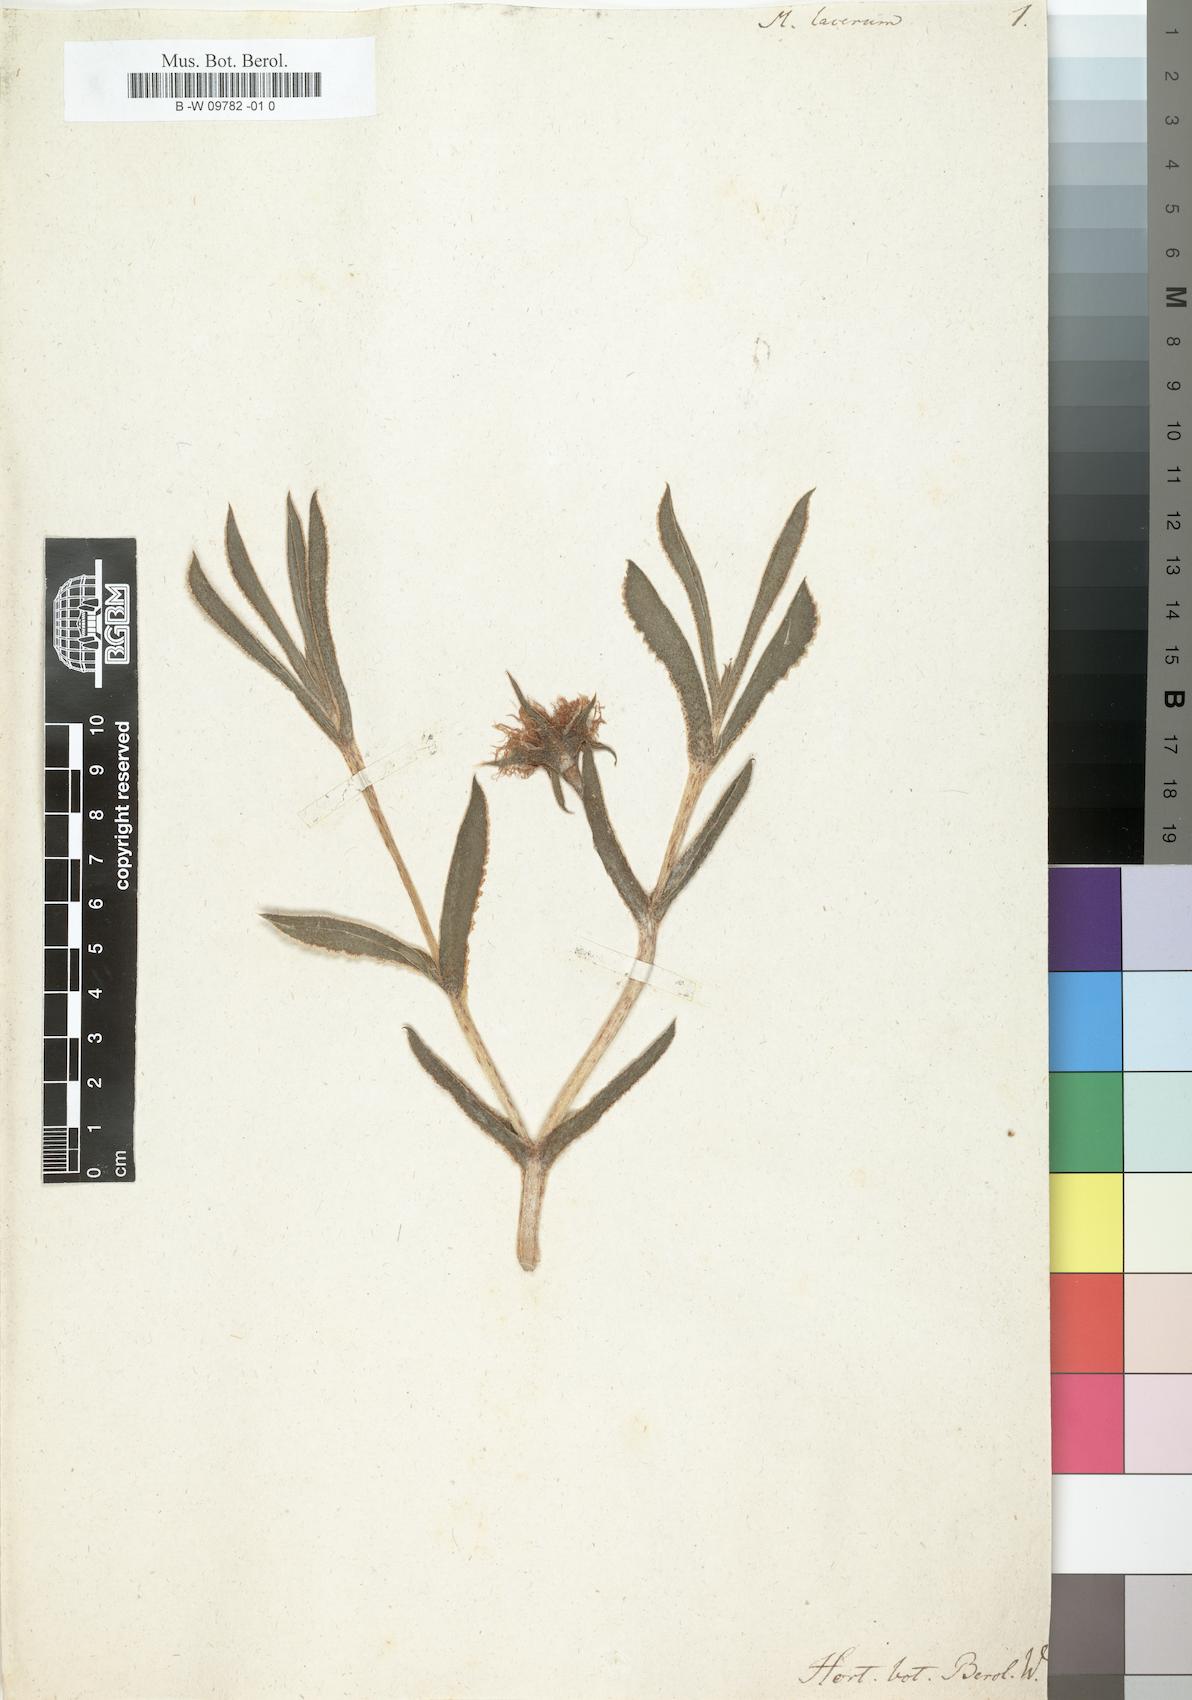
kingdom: Plantae
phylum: Tracheophyta
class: Magnoliopsida
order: Caryophyllales
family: Aizoaceae
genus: Erepsia
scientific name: Erepsia
